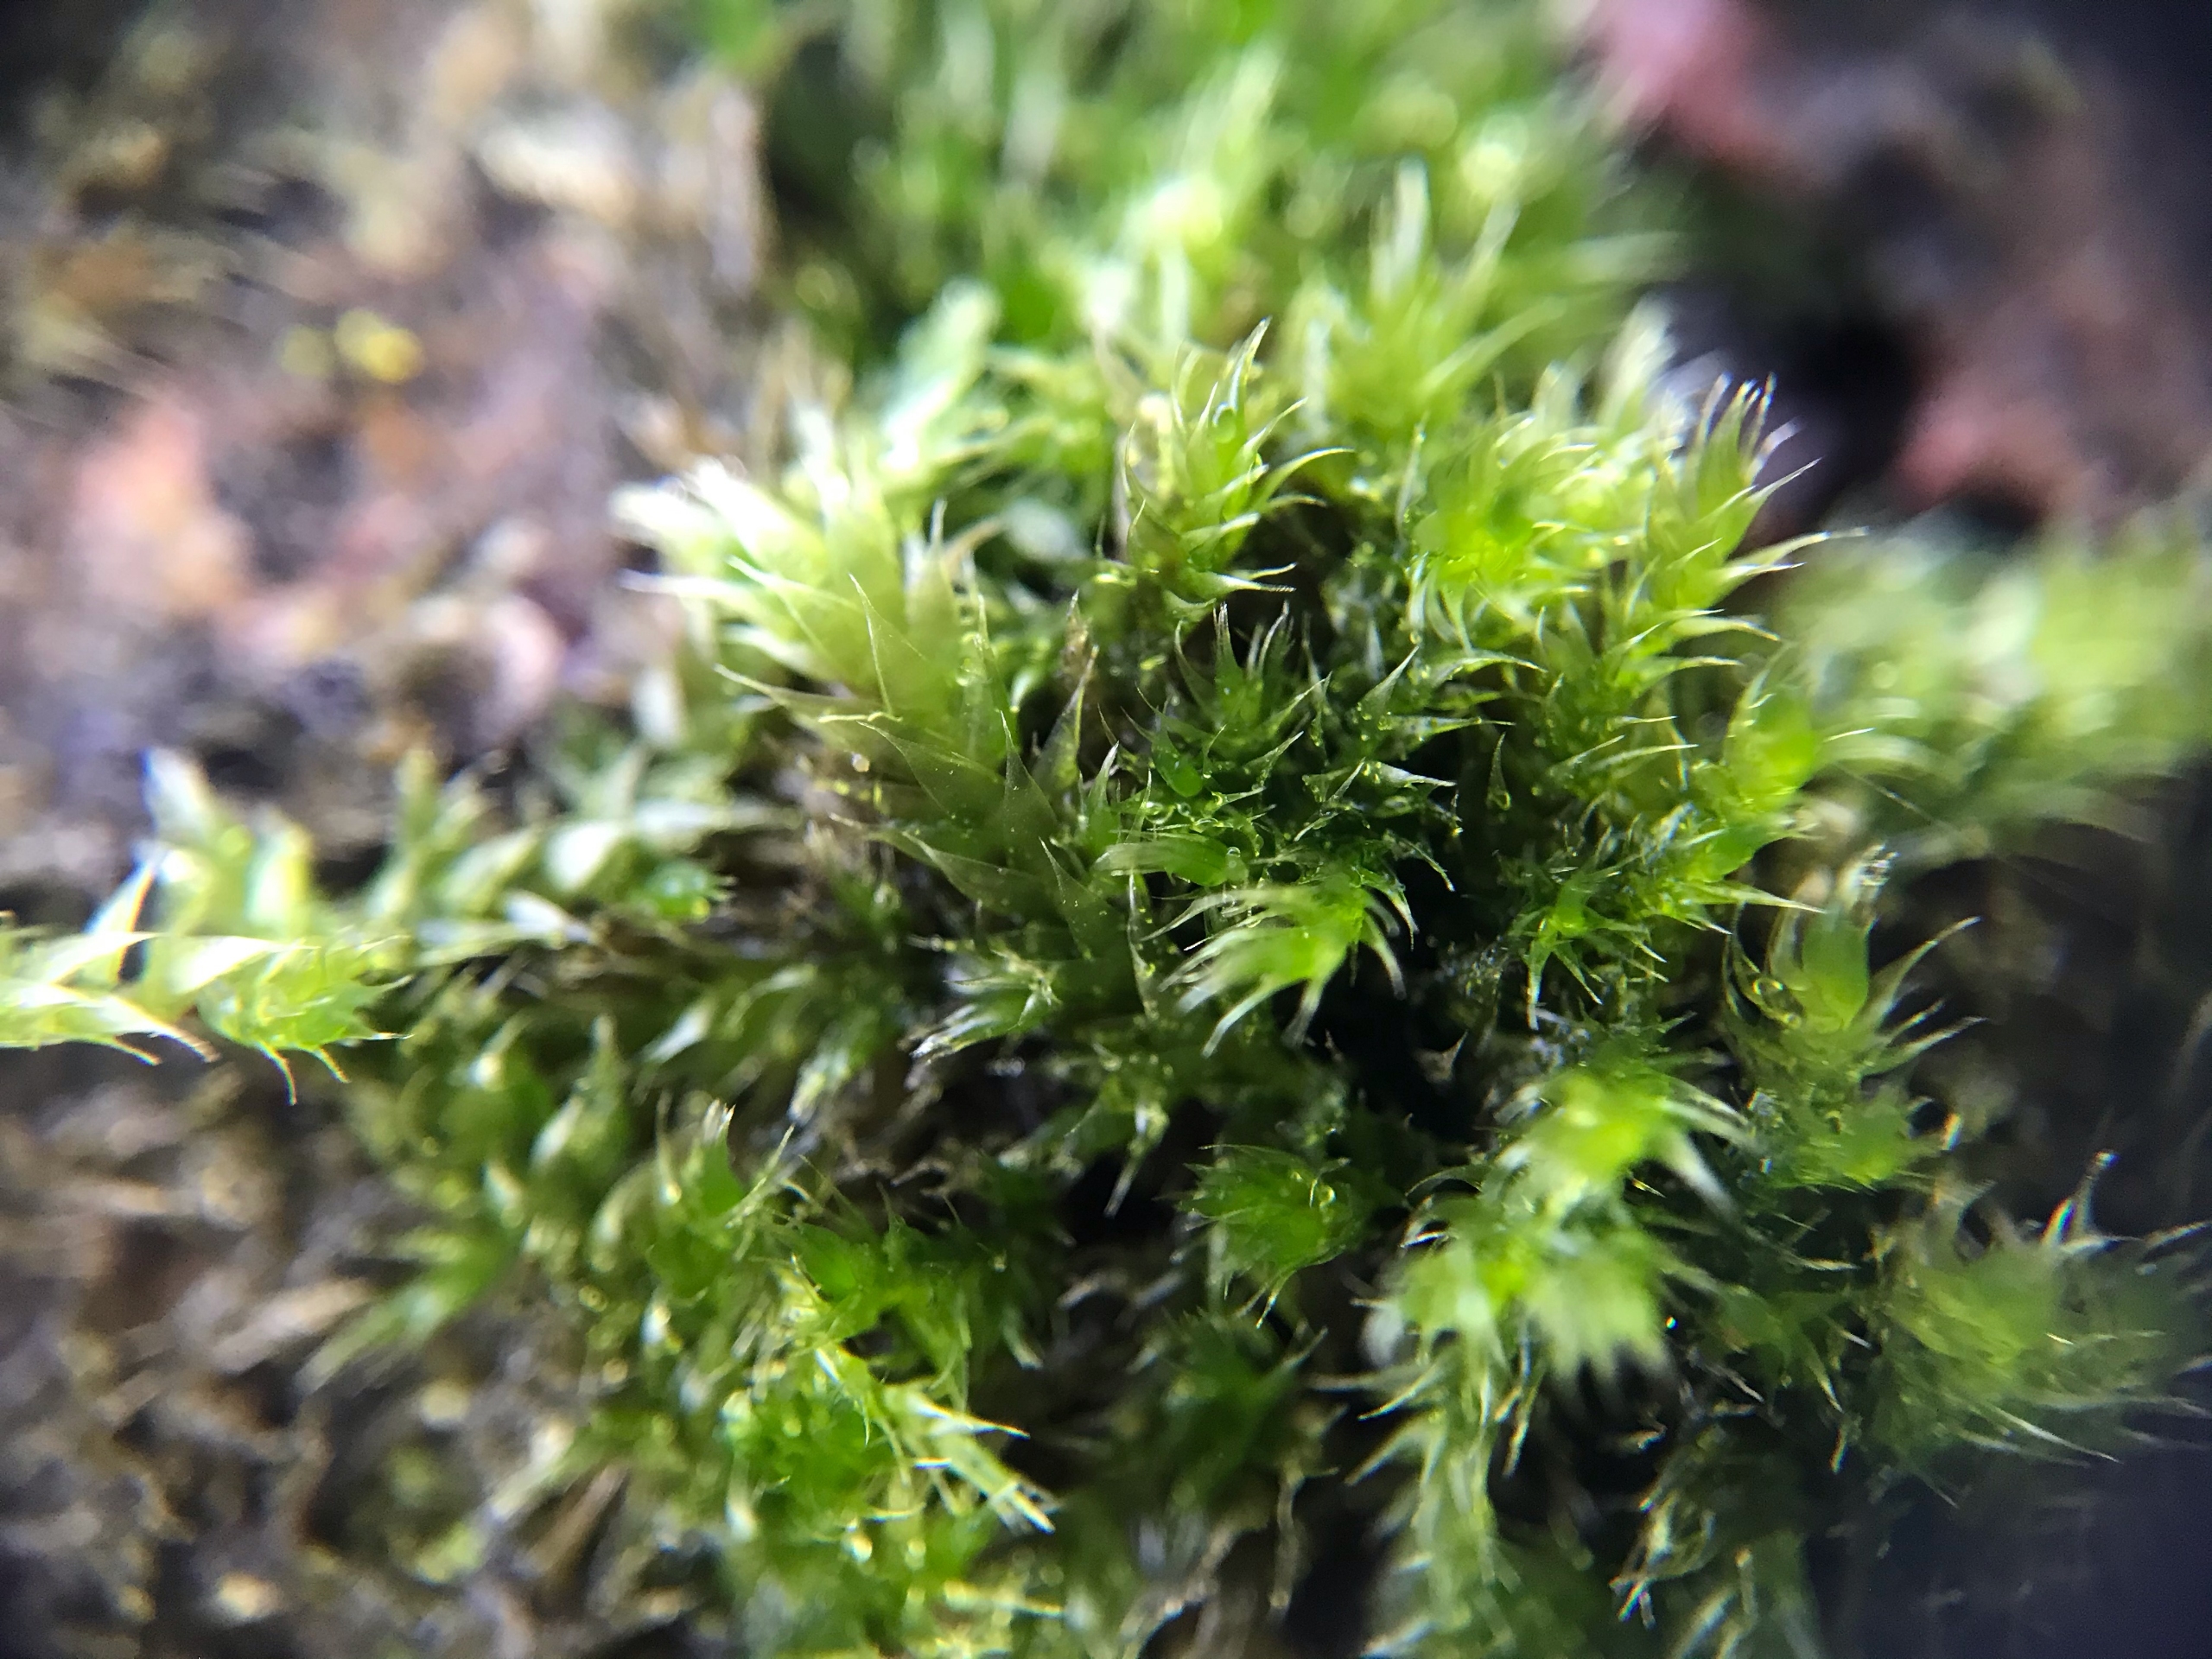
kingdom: Plantae
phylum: Bryophyta
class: Bryopsida
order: Hypnales
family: Hypnaceae
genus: Hypnum
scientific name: Hypnum cupressiforme
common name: Almindelig cypresmos
